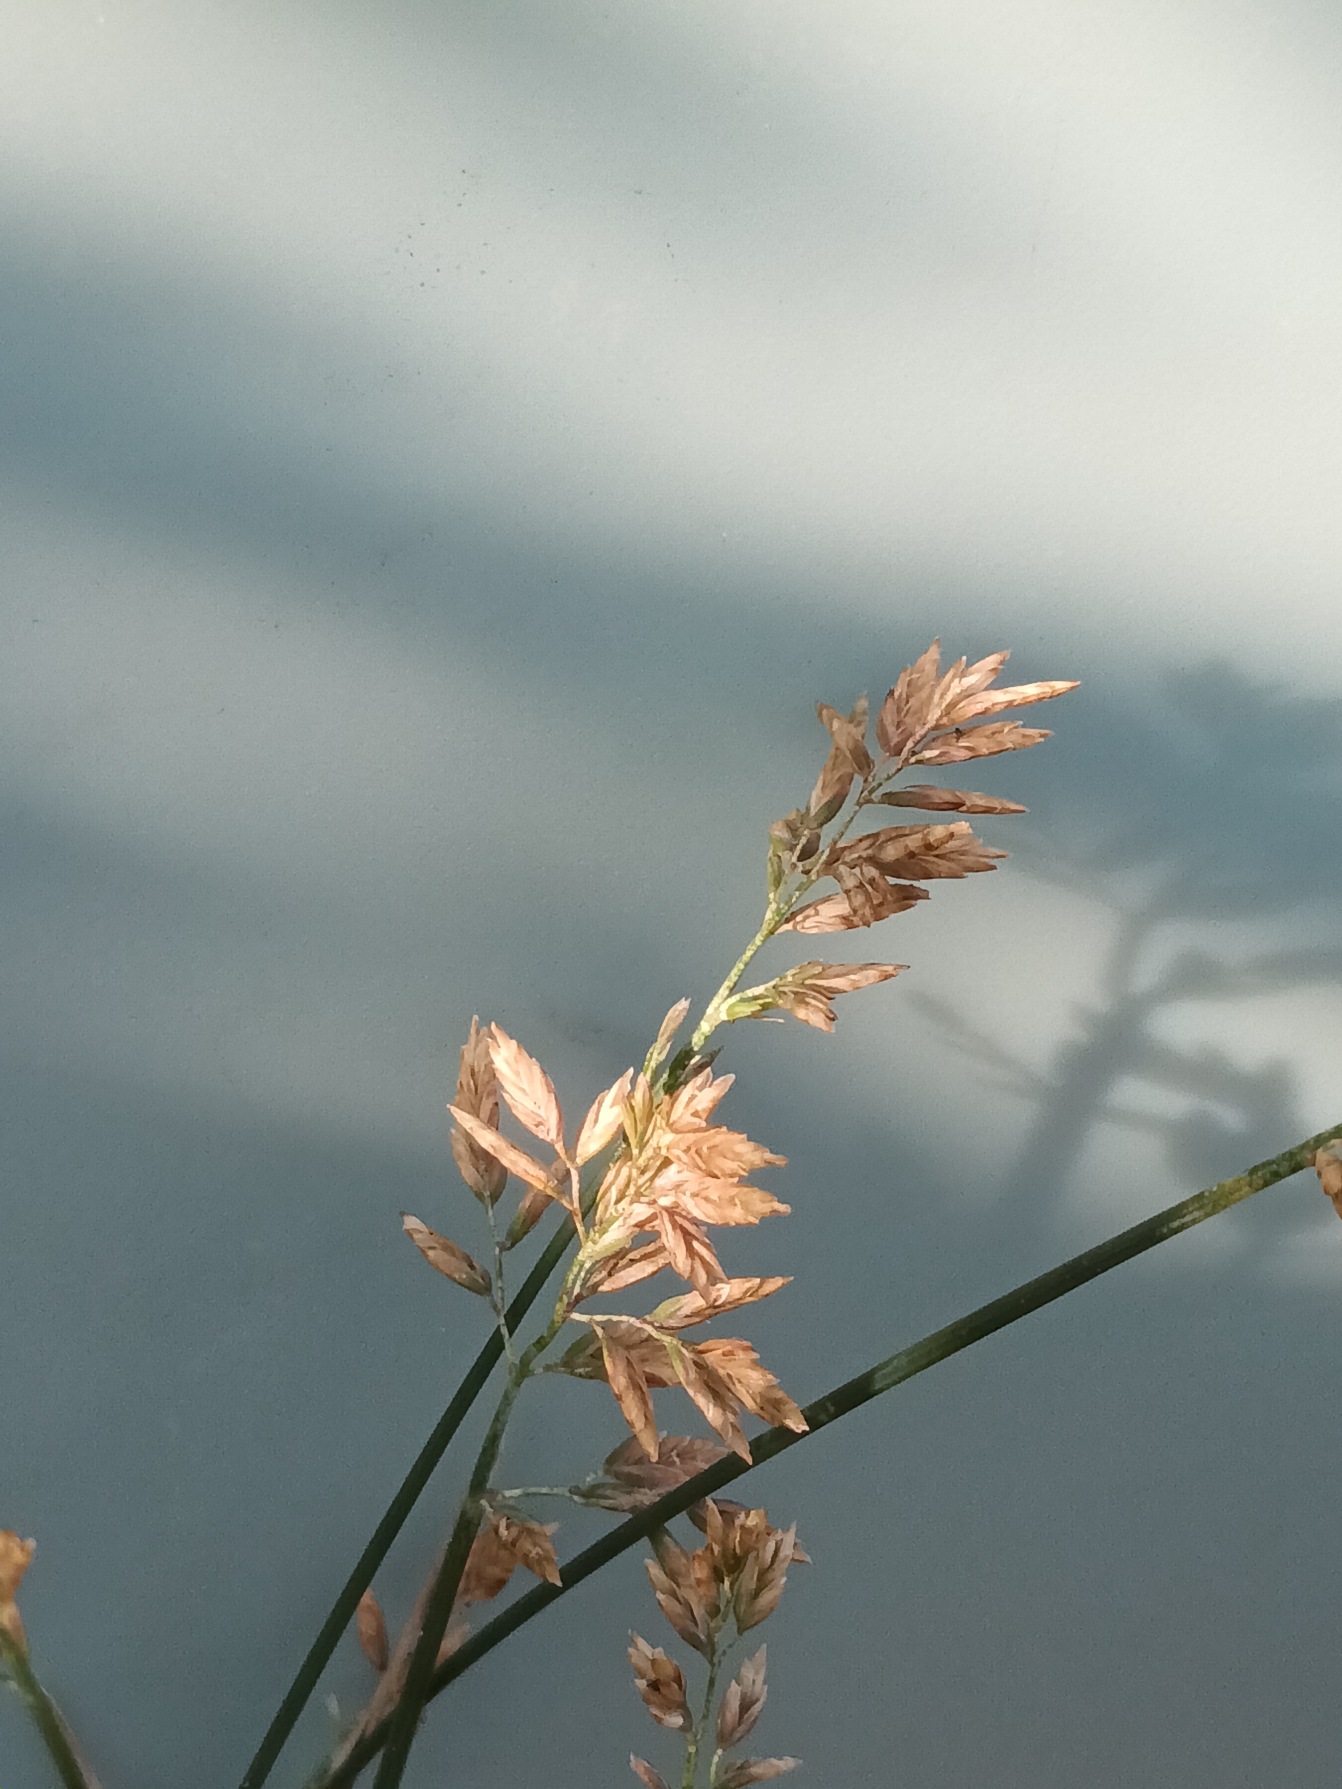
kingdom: Plantae
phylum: Tracheophyta
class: Liliopsida
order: Poales
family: Poaceae
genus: Poa
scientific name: Poa compressa
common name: Fladstrået rapgræs
